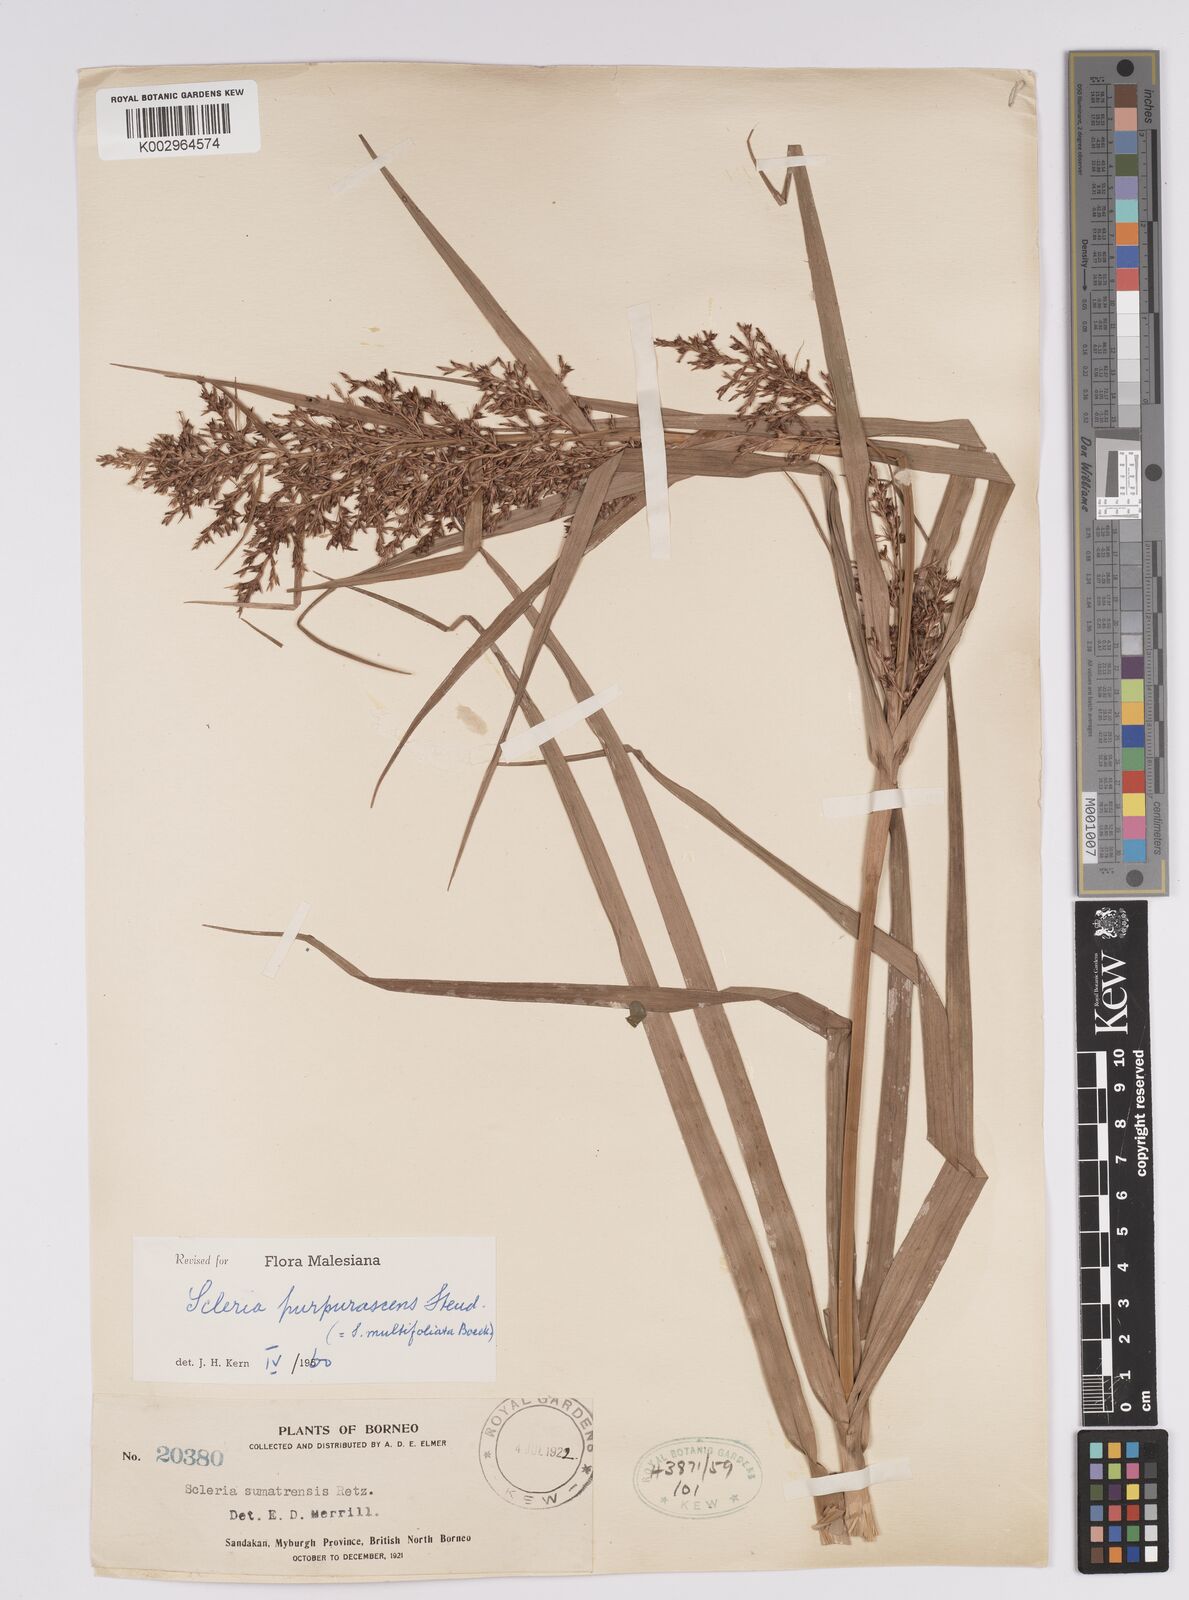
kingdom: Plantae
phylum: Tracheophyta
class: Liliopsida
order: Poales
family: Cyperaceae
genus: Scleria
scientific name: Scleria purpurascens
